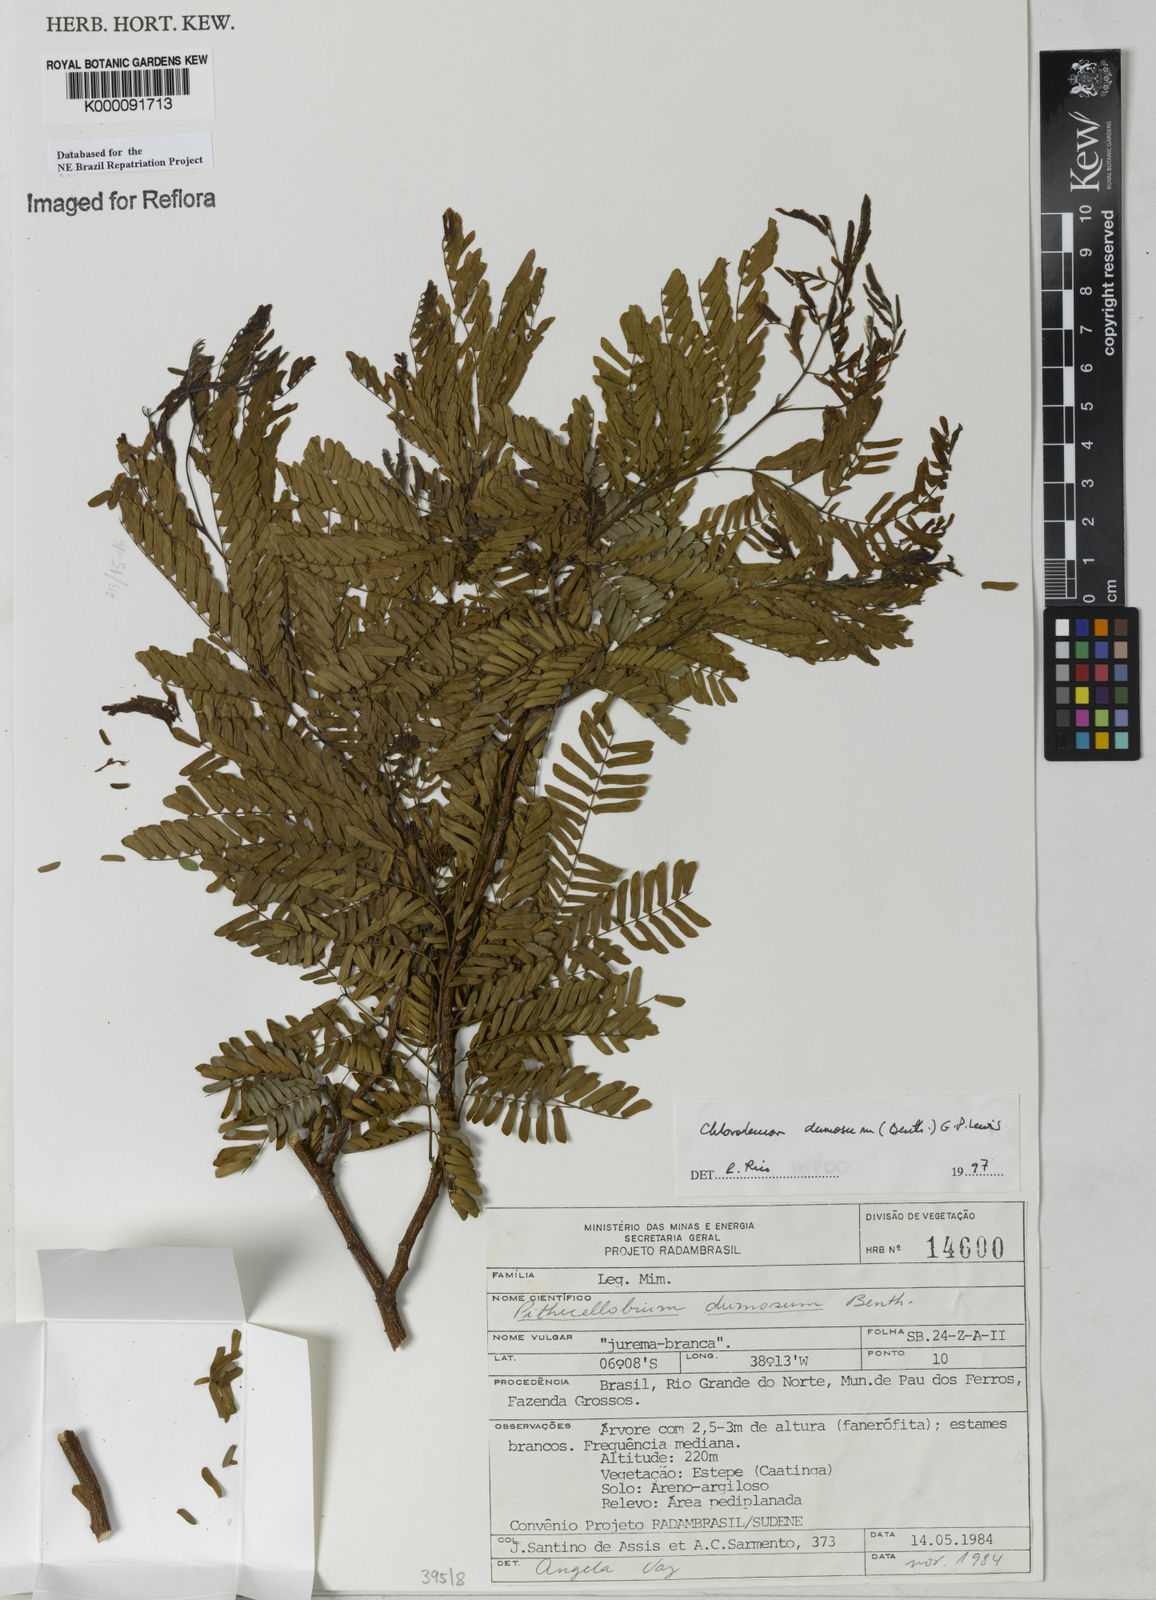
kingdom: Plantae
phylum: Tracheophyta
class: Magnoliopsida
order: Fabales
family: Fabaceae
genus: Chloroleucon
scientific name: Chloroleucon dumosum
